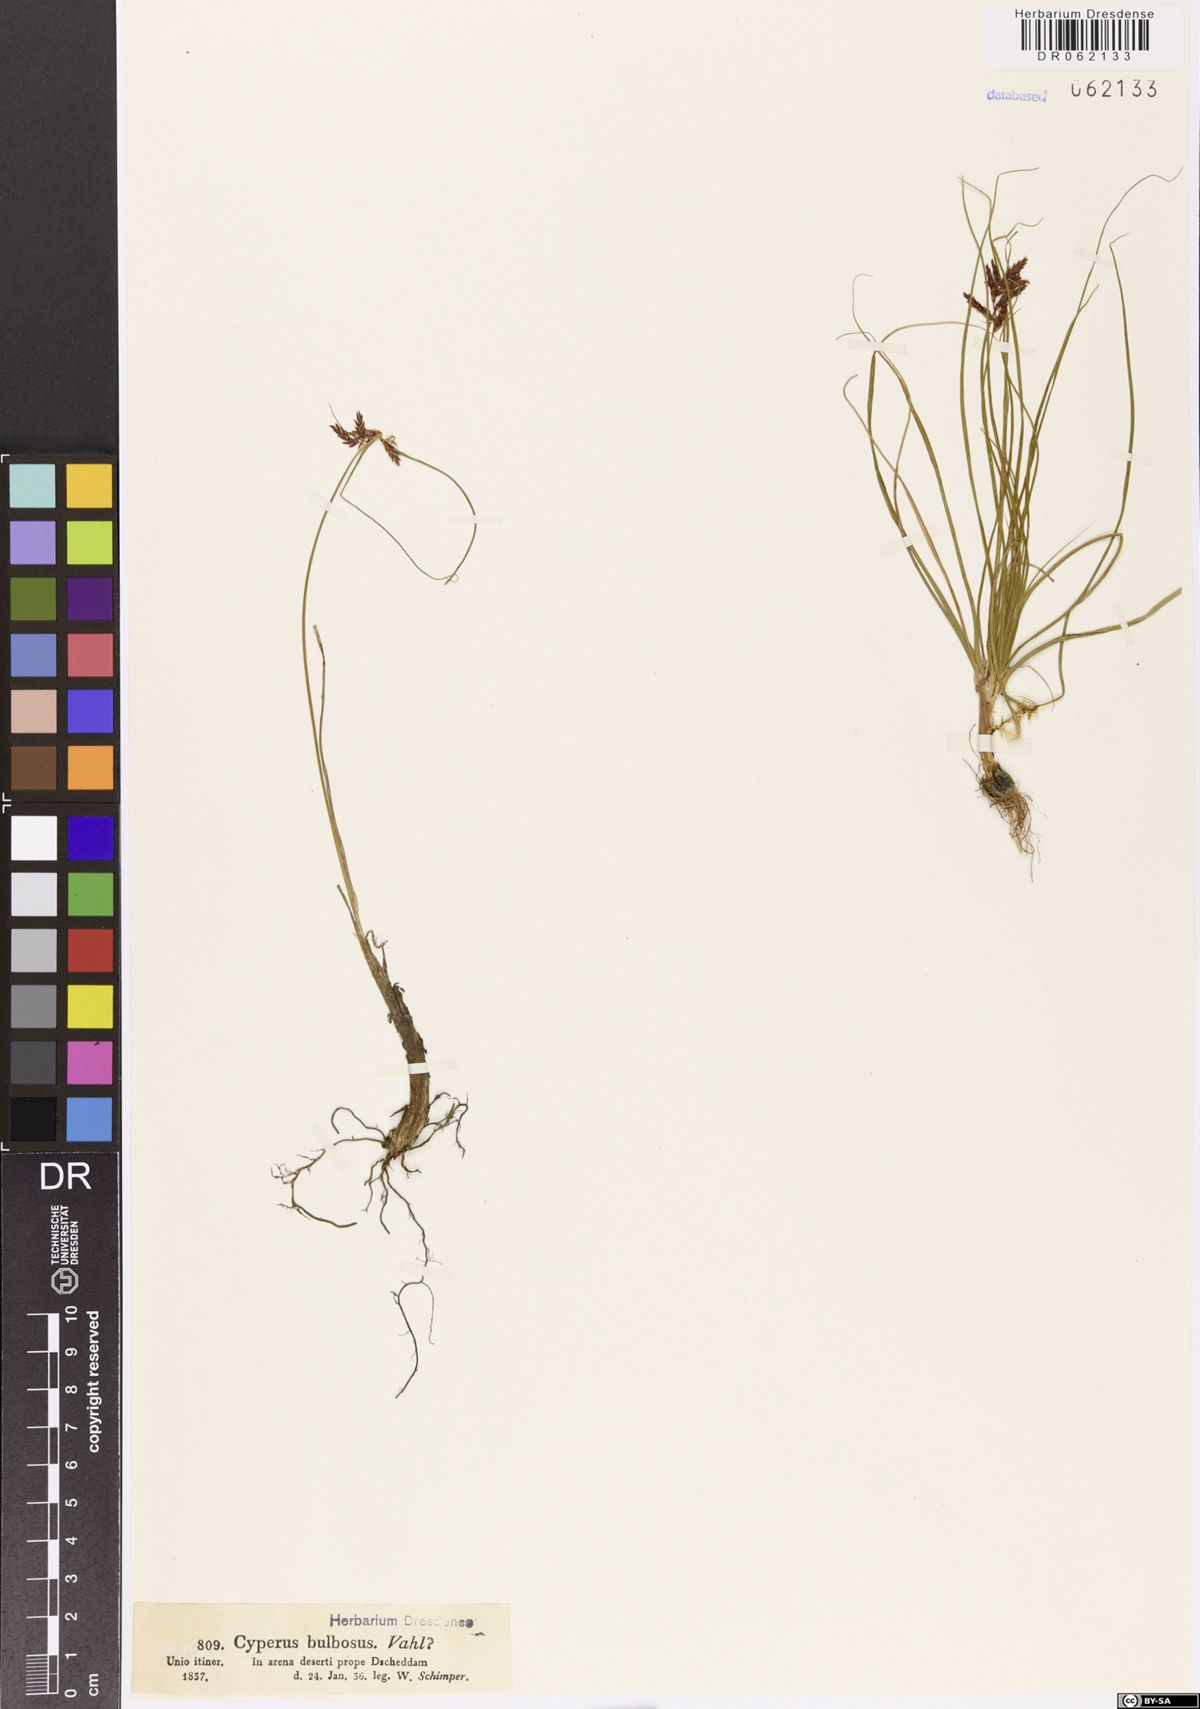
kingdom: Plantae
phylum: Tracheophyta
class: Liliopsida
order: Poales
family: Cyperaceae
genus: Cyperus
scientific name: Cyperus bulbosus
